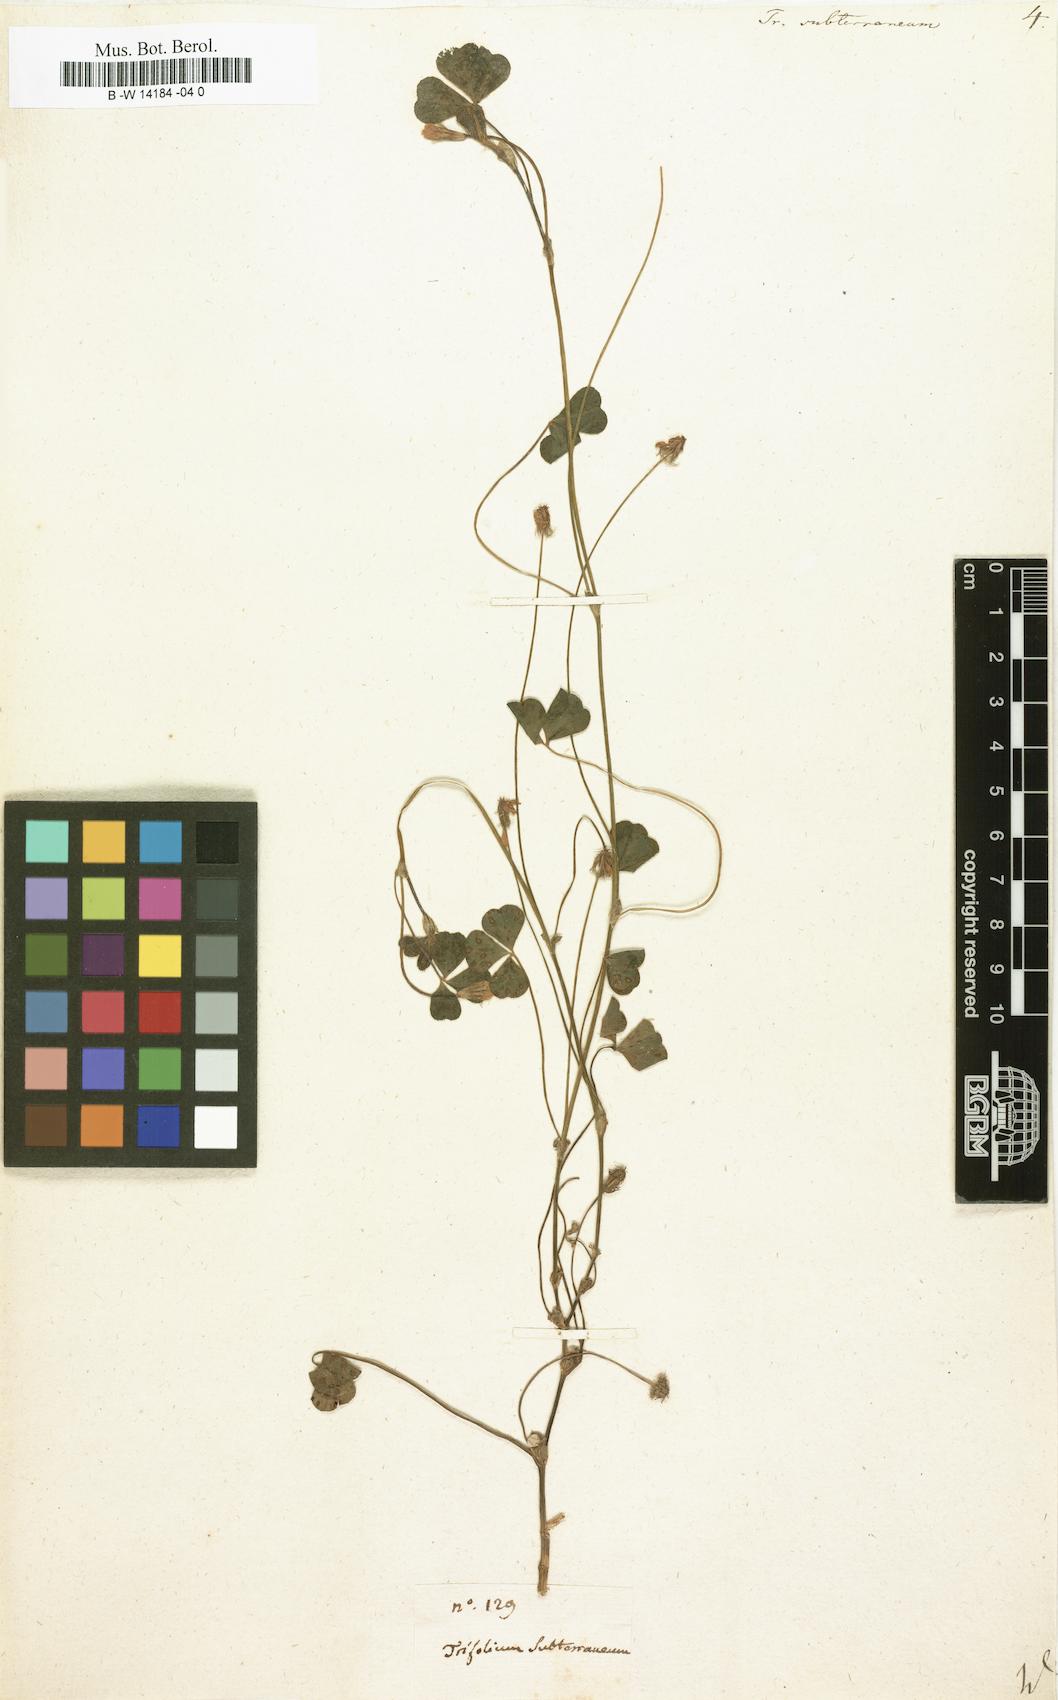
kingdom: Plantae
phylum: Tracheophyta
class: Magnoliopsida
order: Fabales
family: Fabaceae
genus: Trifolium
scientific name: Trifolium subterraneum
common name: Subterranean clover
